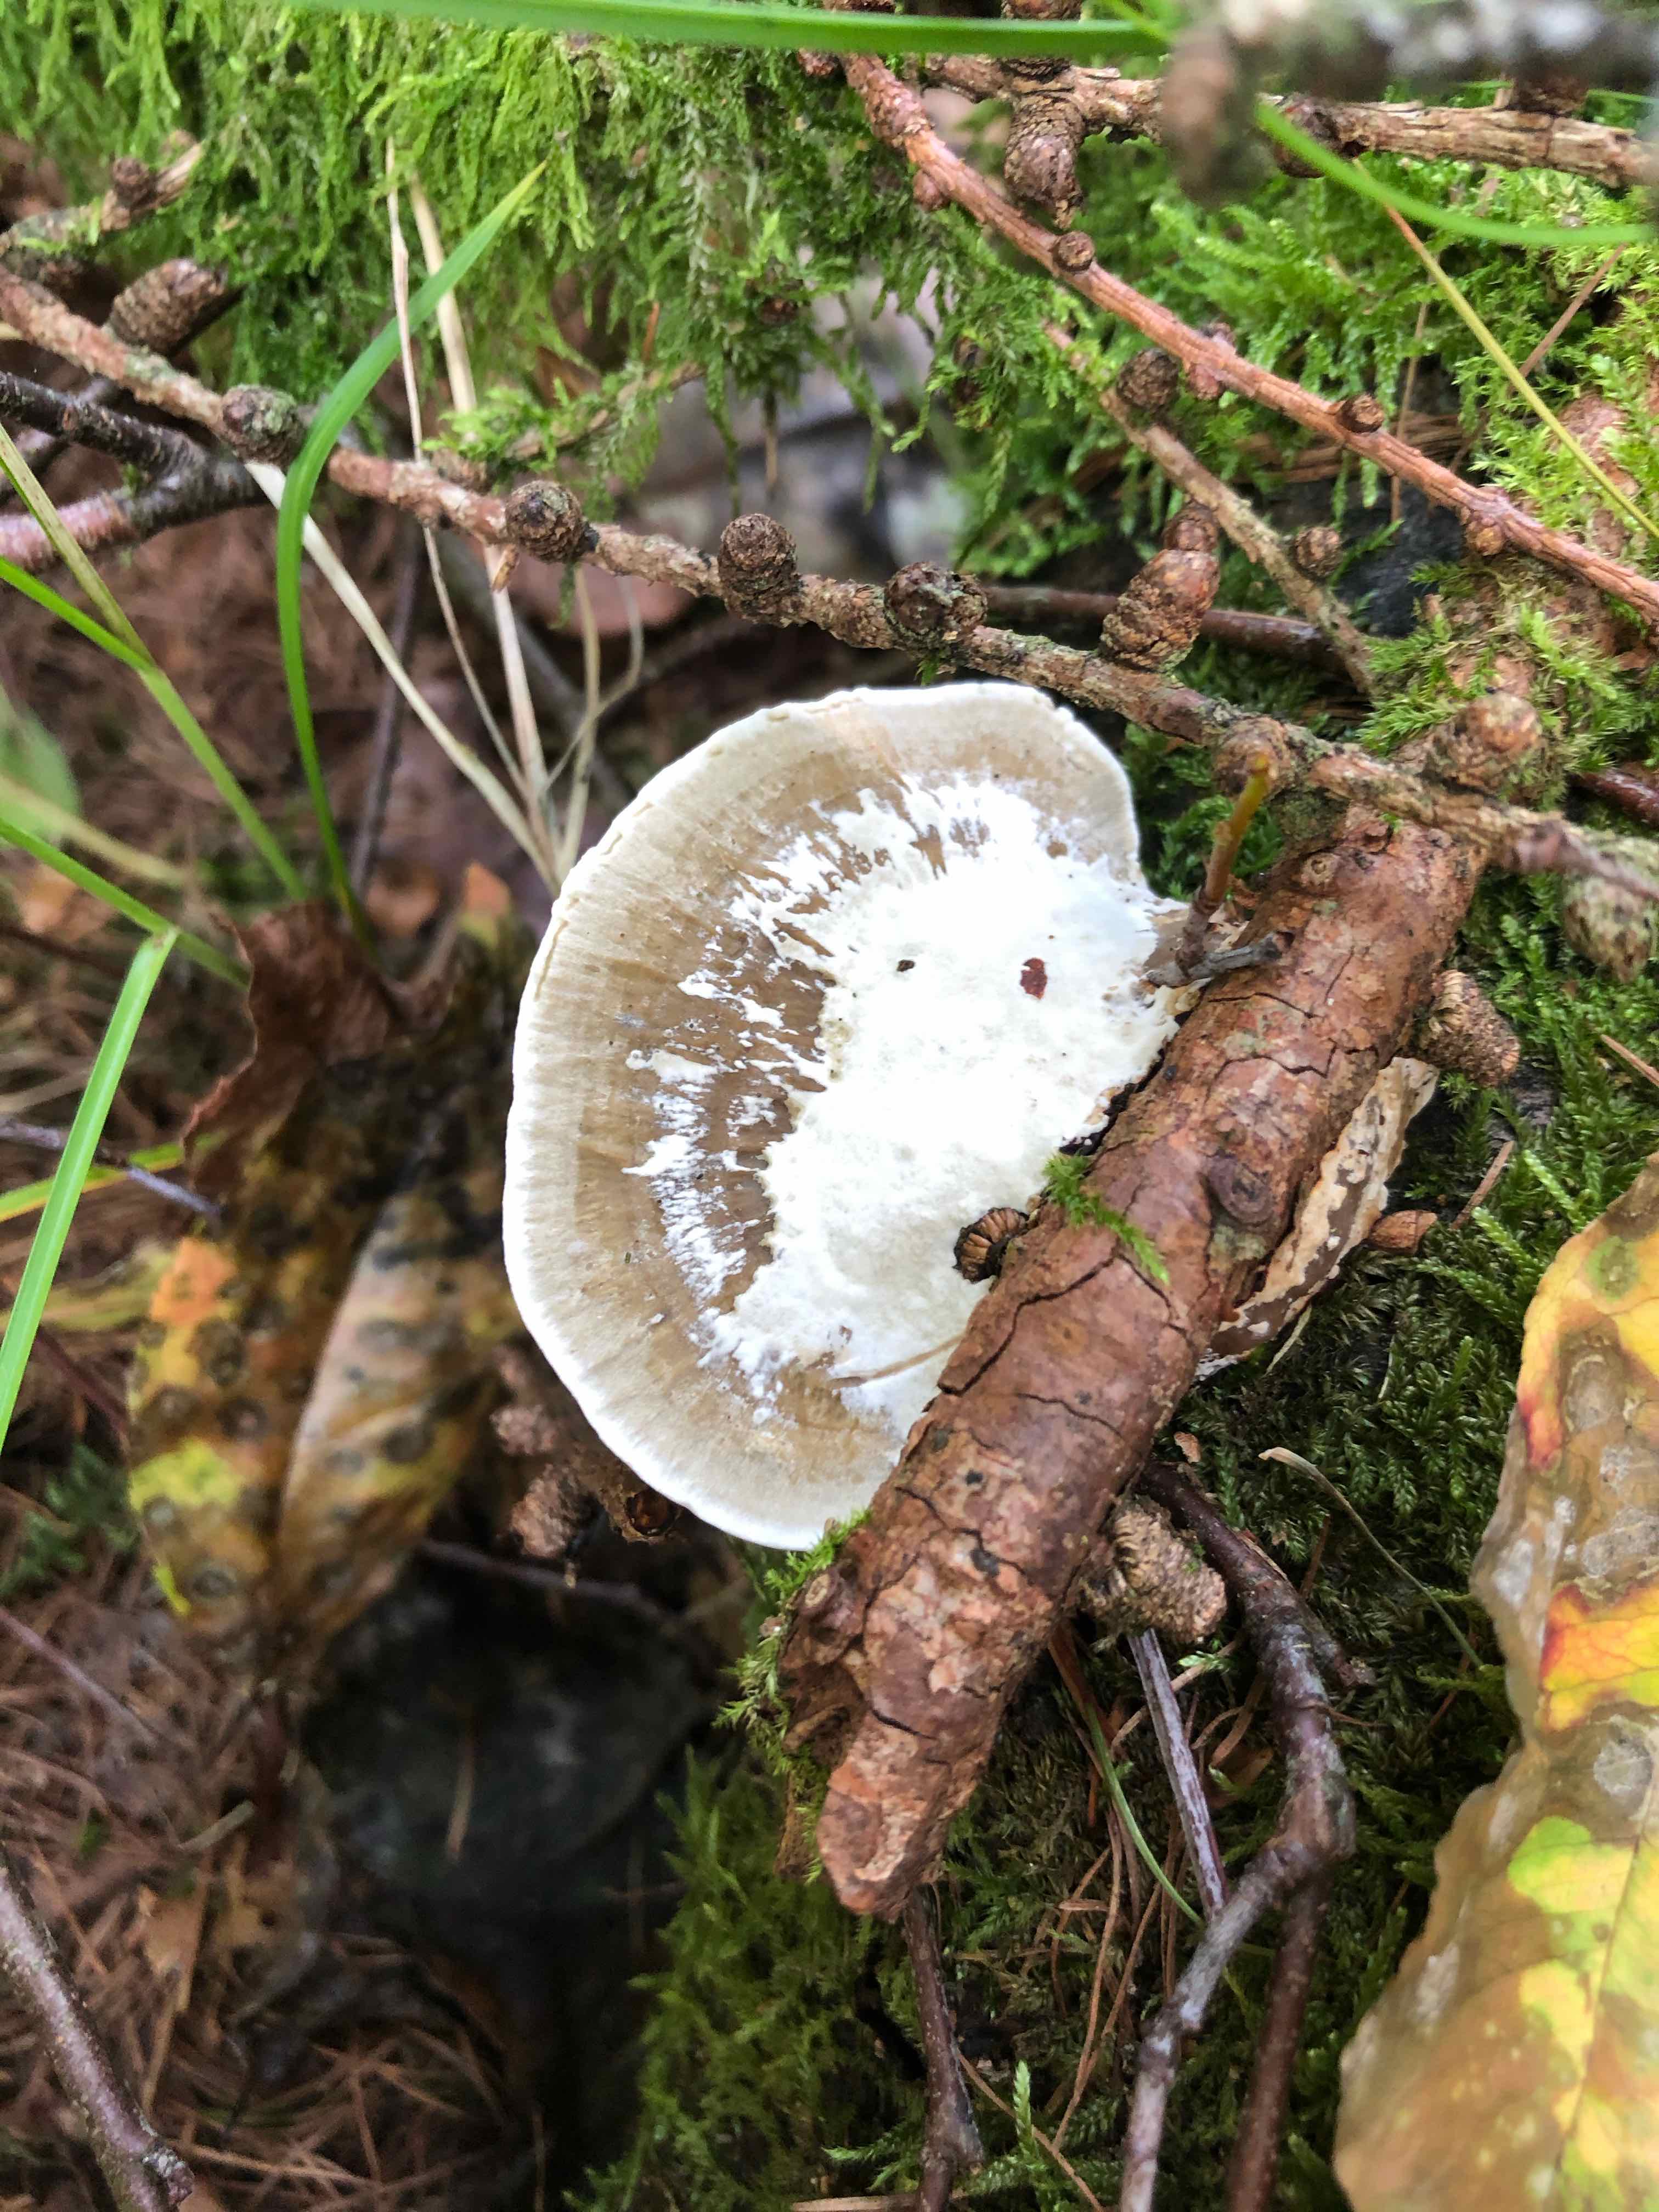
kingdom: Fungi
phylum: Basidiomycota
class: Agaricomycetes
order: Polyporales
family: Polyporaceae
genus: Daedaleopsis
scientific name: Daedaleopsis confragosa
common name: rødmende læderporesvamp
